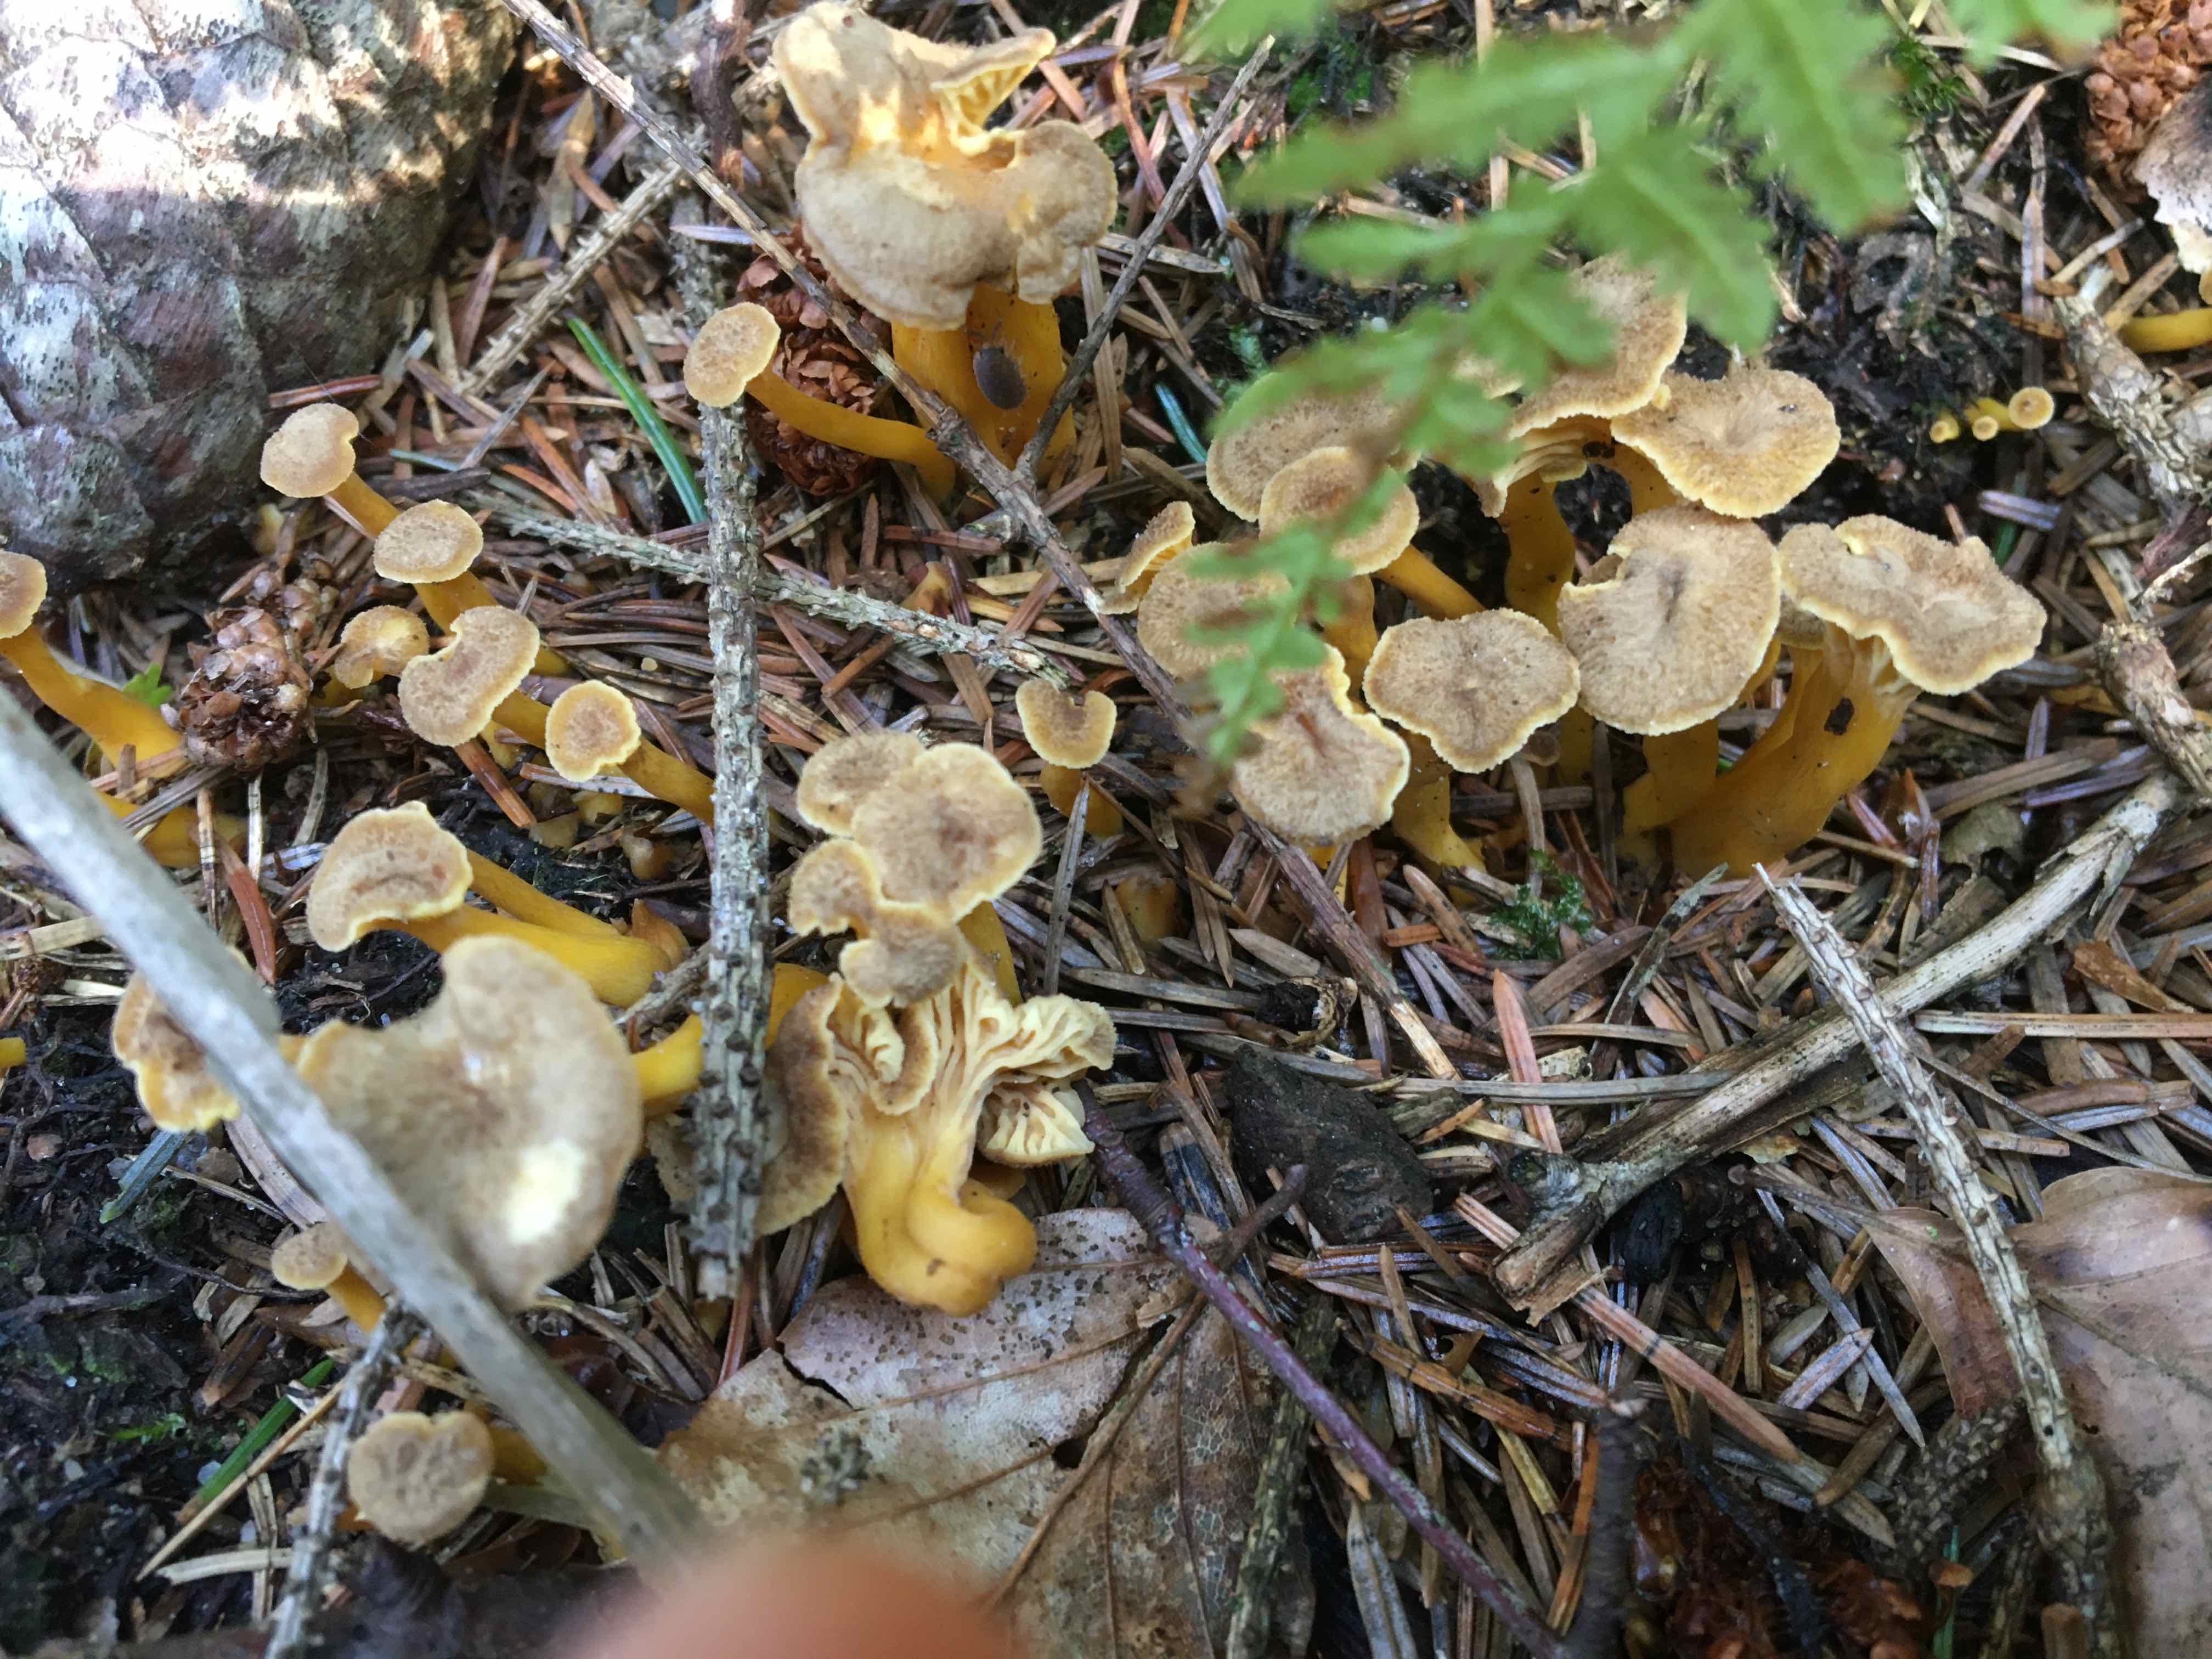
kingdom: Fungi
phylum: Basidiomycota
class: Agaricomycetes
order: Cantharellales
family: Hydnaceae
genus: Craterellus
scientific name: Craterellus tubaeformis
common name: tragt-kantarel
